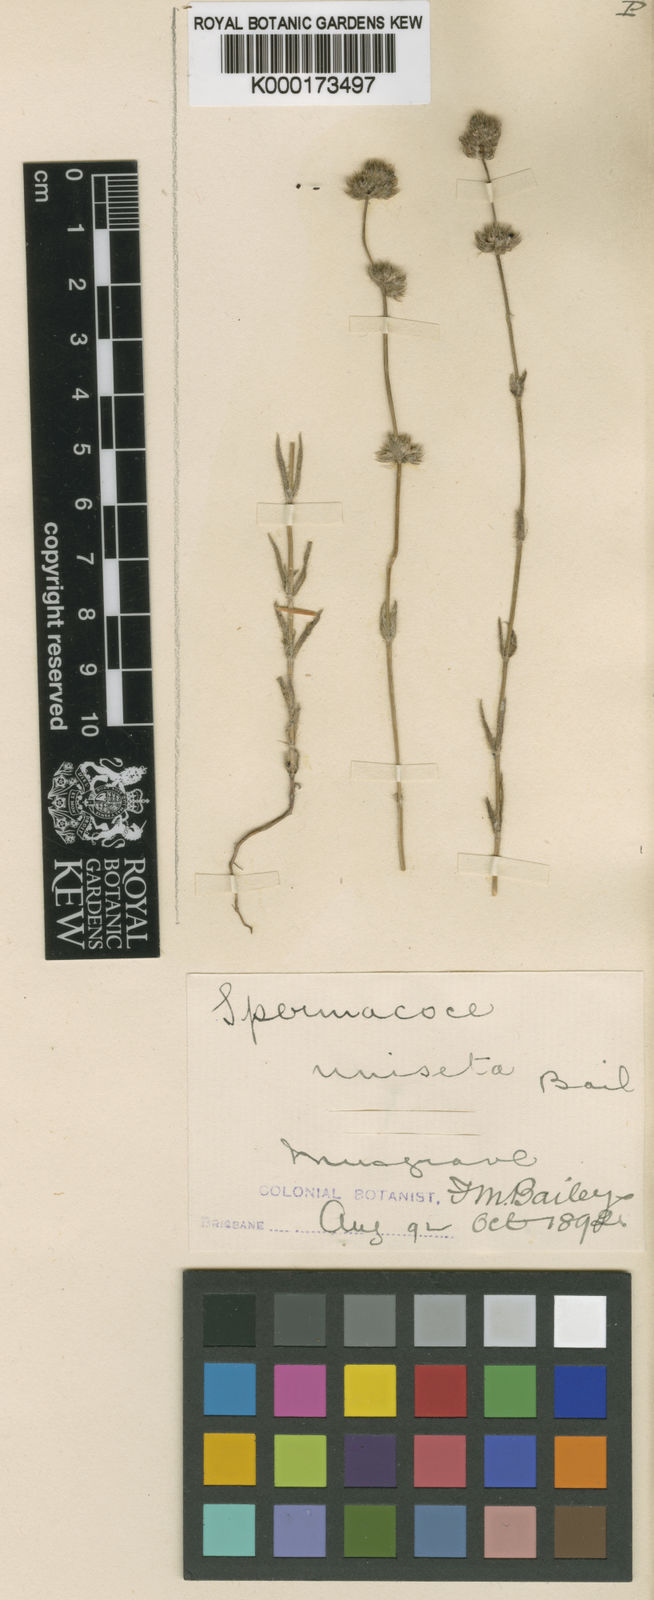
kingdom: Plantae
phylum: Tracheophyta
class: Magnoliopsida
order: Gentianales
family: Rubiaceae
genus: Spermacoce
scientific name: Spermacoce uniseta
